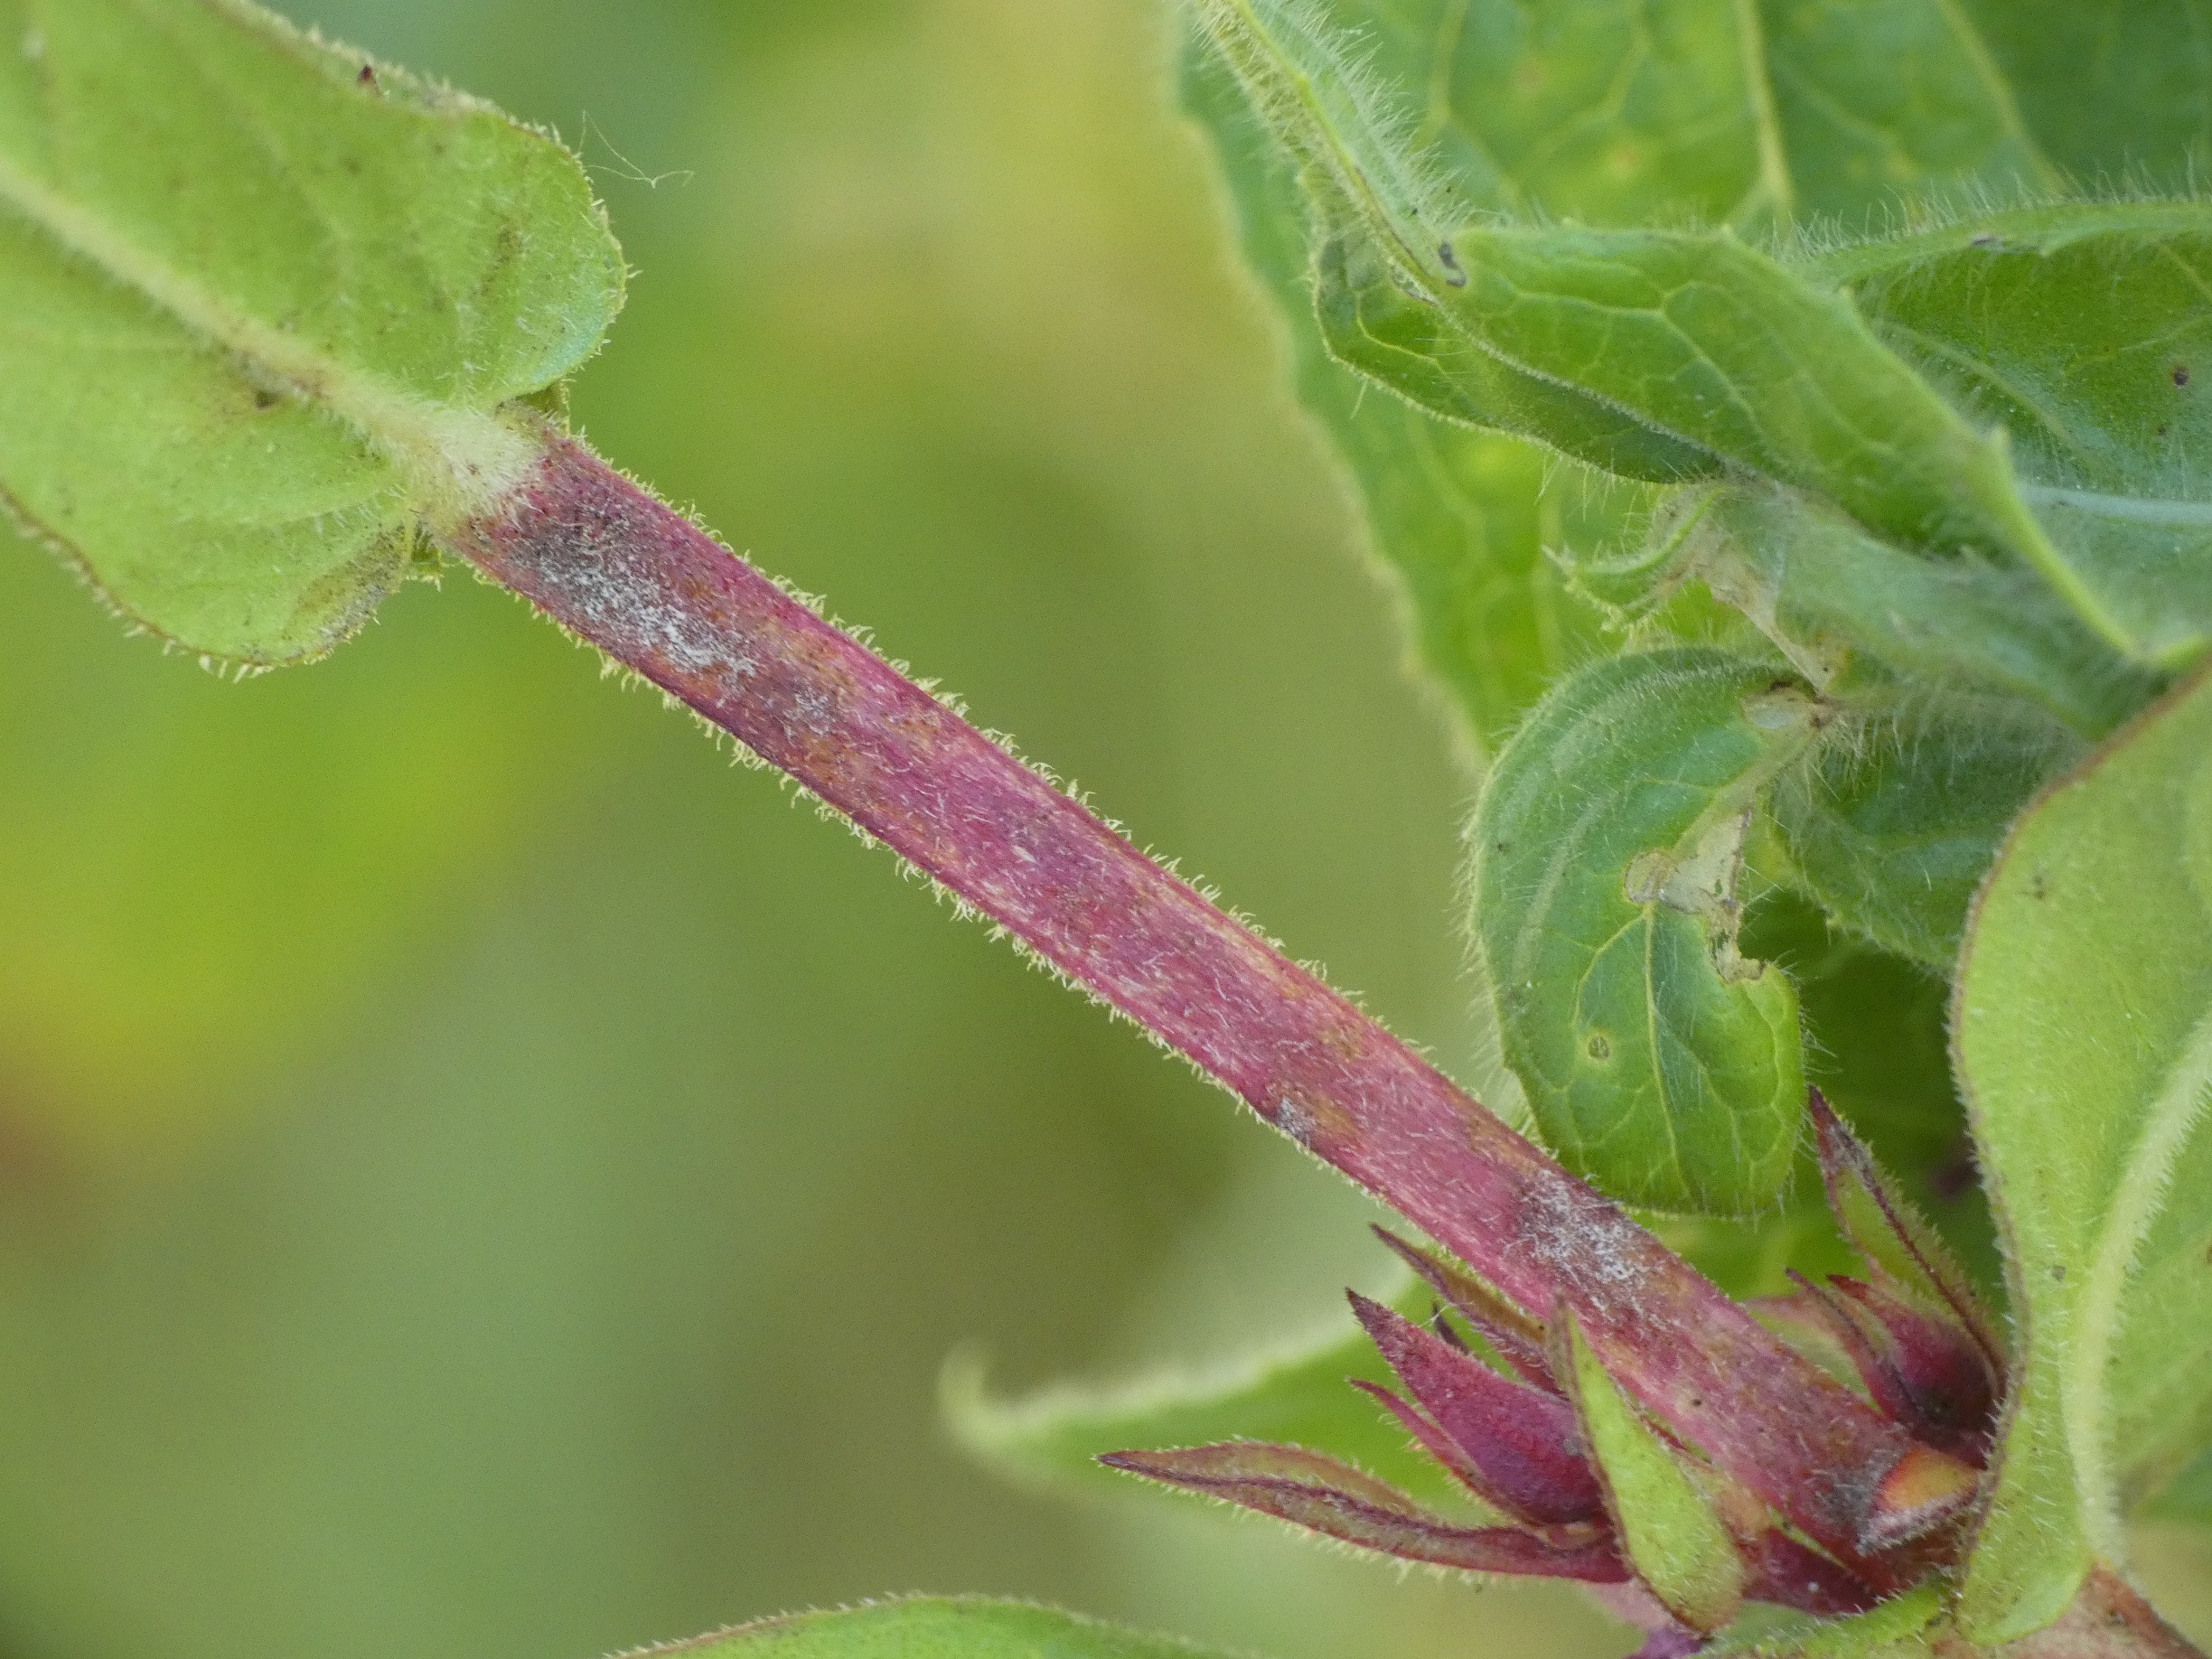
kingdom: Plantae
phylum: Tracheophyta
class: Magnoliopsida
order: Myrtales
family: Lythraceae
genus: Lythrum
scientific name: Lythrum salicaria
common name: Kattehale
